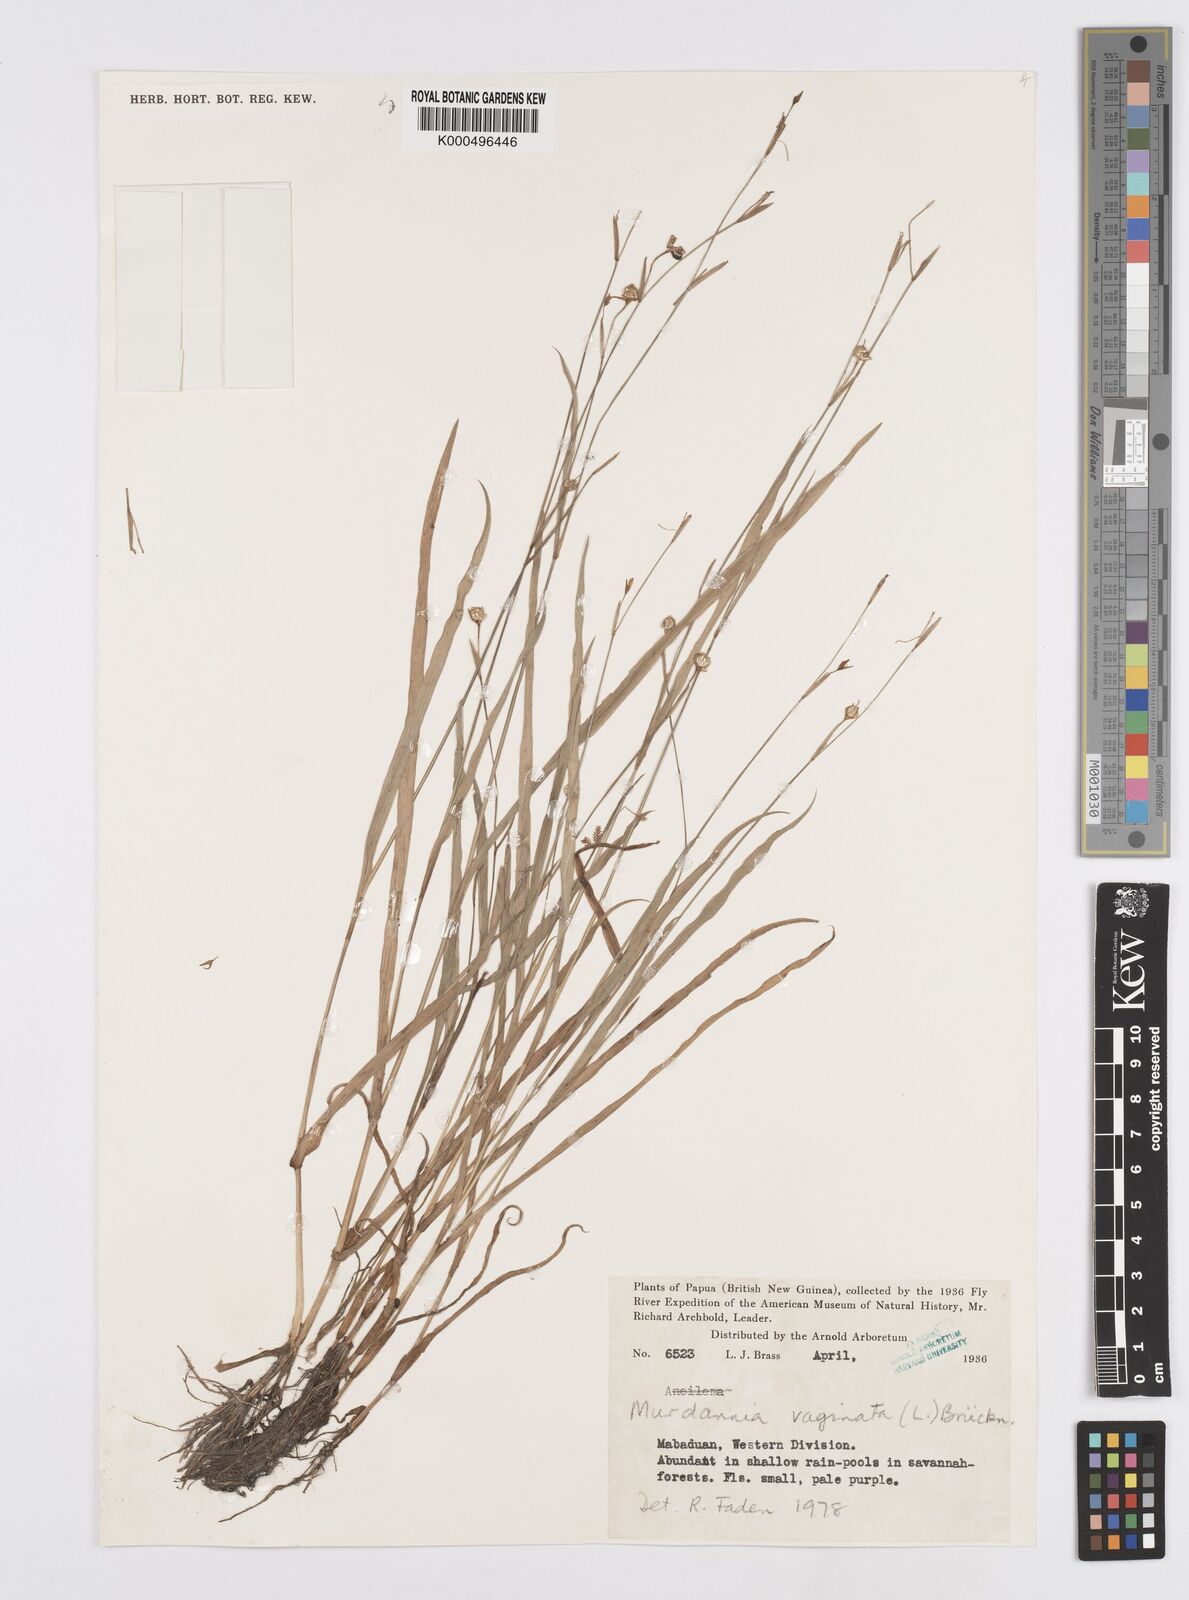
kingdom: Plantae
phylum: Tracheophyta
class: Liliopsida
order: Commelinales
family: Commelinaceae
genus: Murdannia
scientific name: Murdannia
